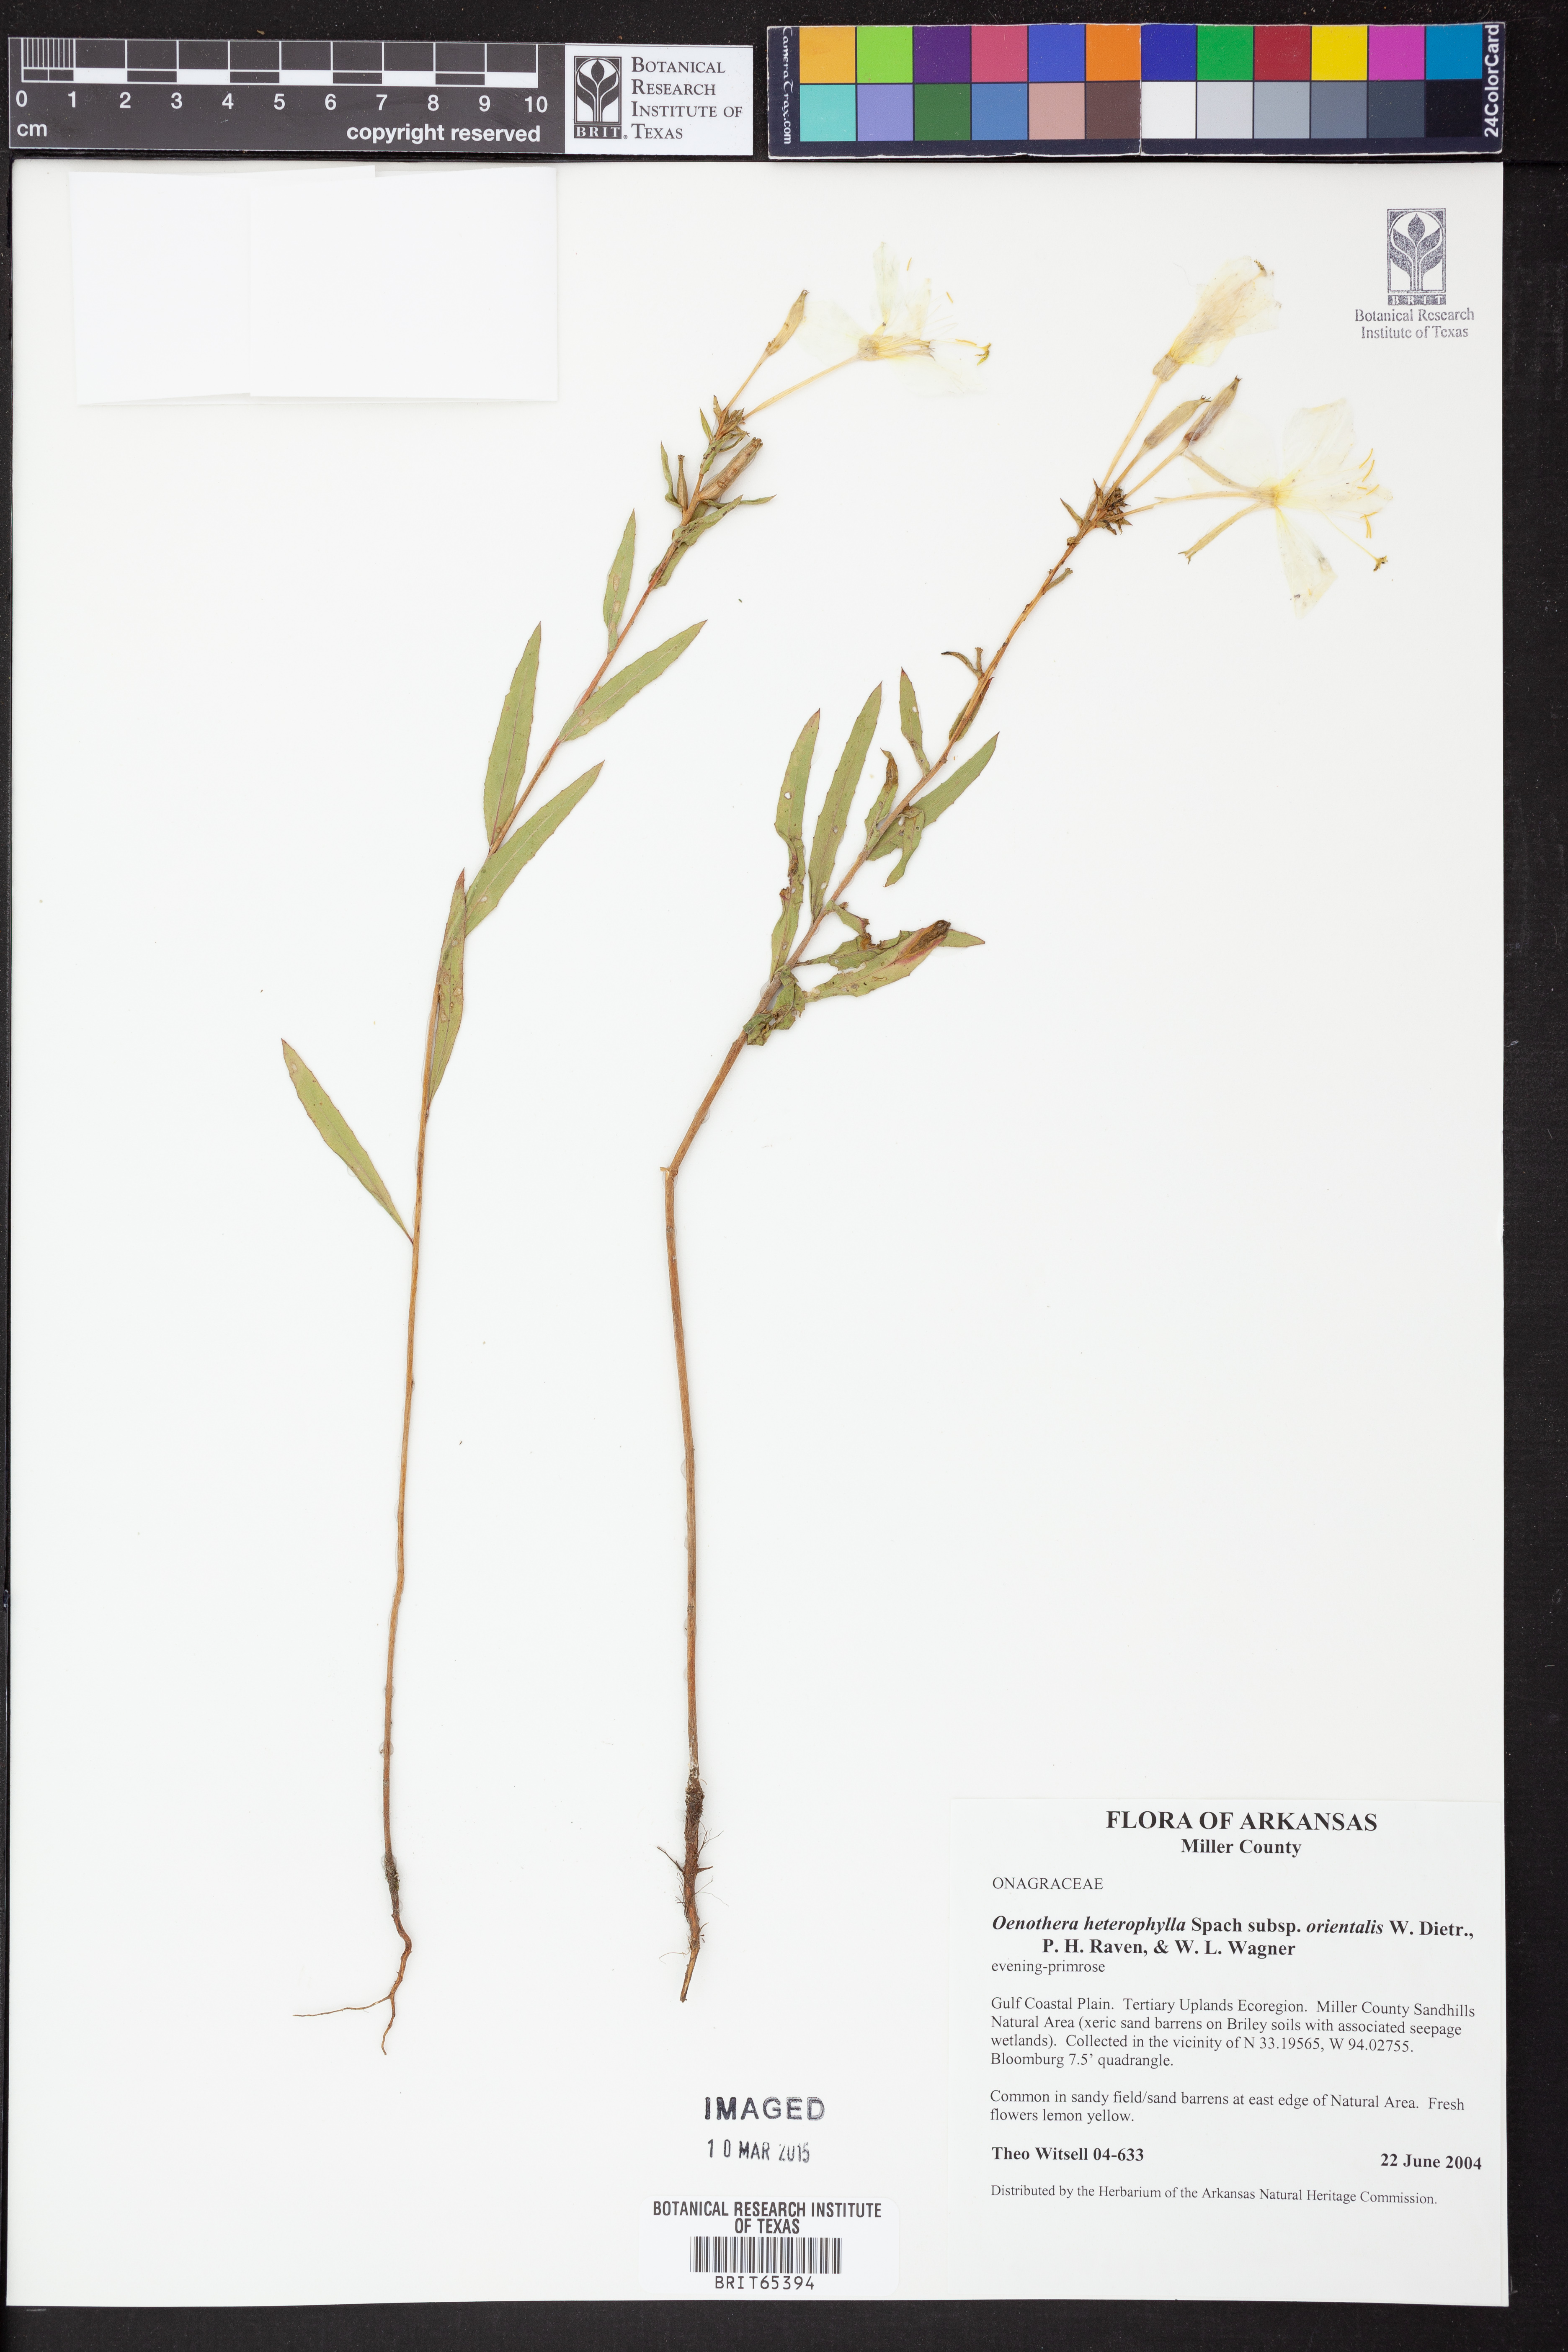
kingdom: Plantae
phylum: Tracheophyta
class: Magnoliopsida
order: Myrtales
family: Onagraceae
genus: Oenothera
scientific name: Oenothera heterophylla
